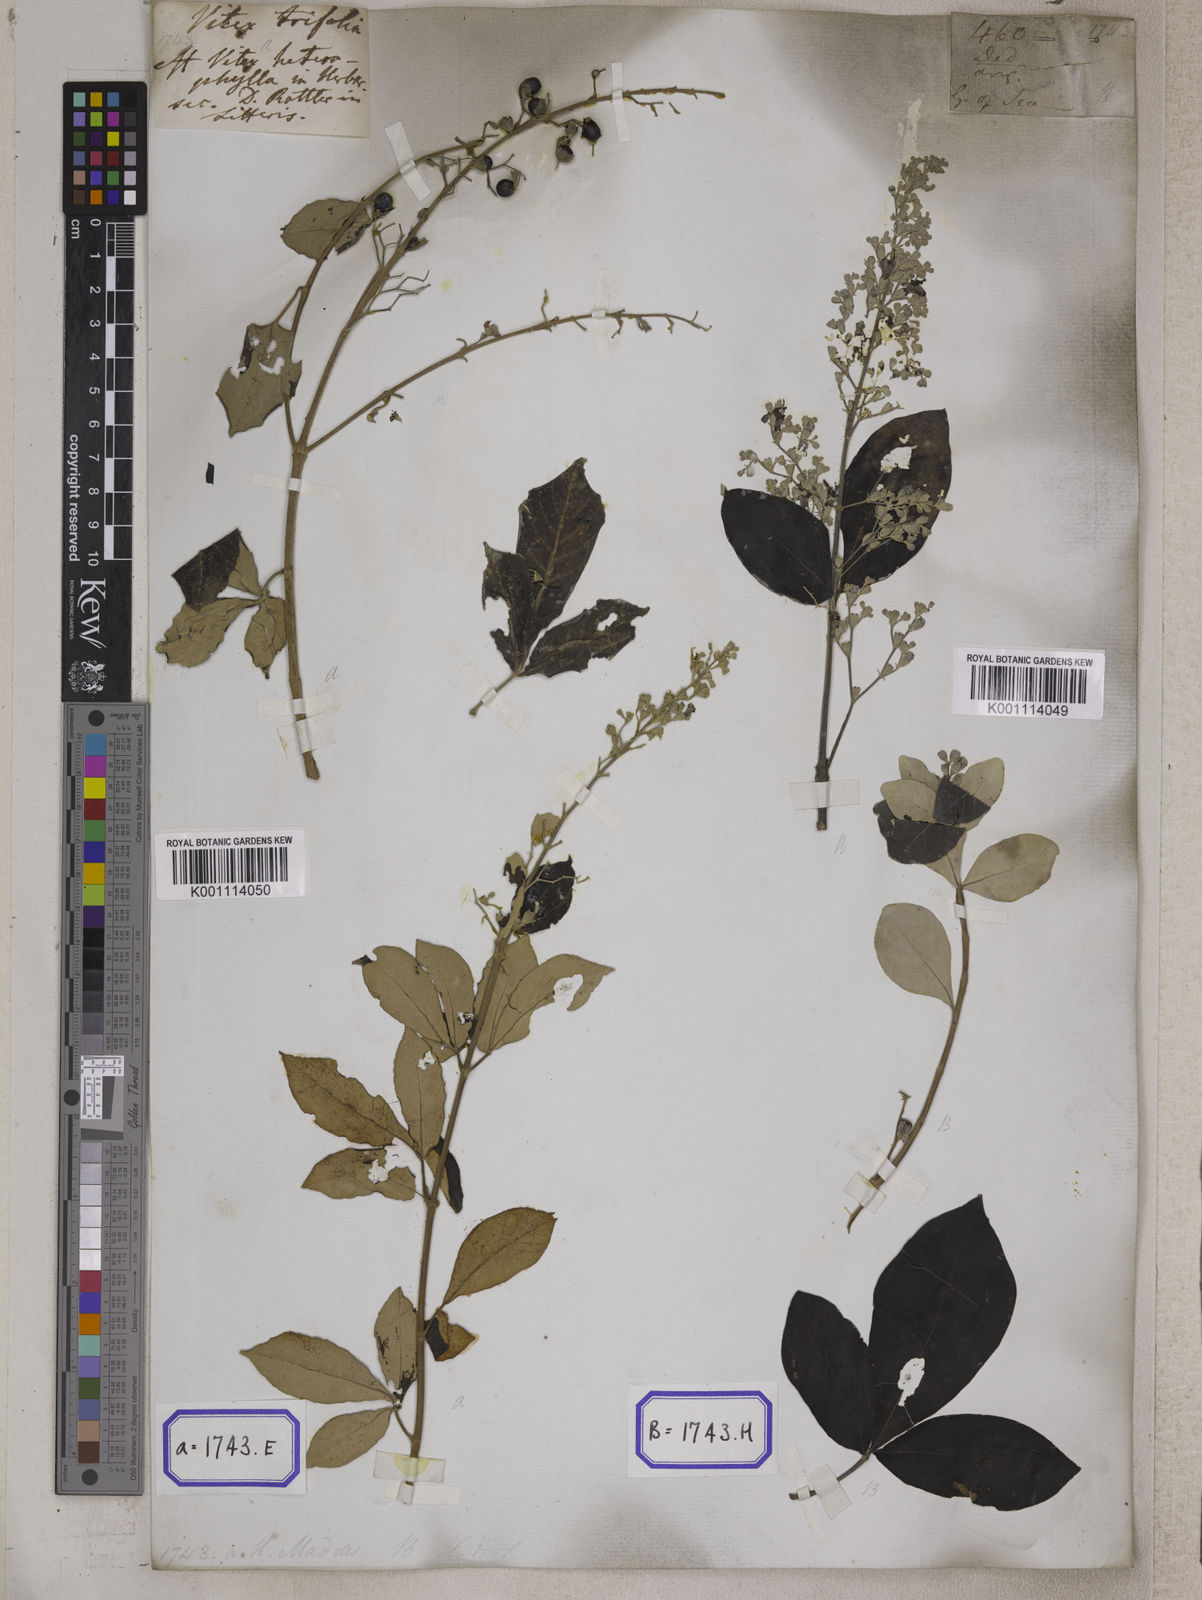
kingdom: Plantae
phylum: Tracheophyta
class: Magnoliopsida
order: Lamiales
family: Lamiaceae
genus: Vitex
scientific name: Vitex trifolia
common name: Simpleleaf chastetree
